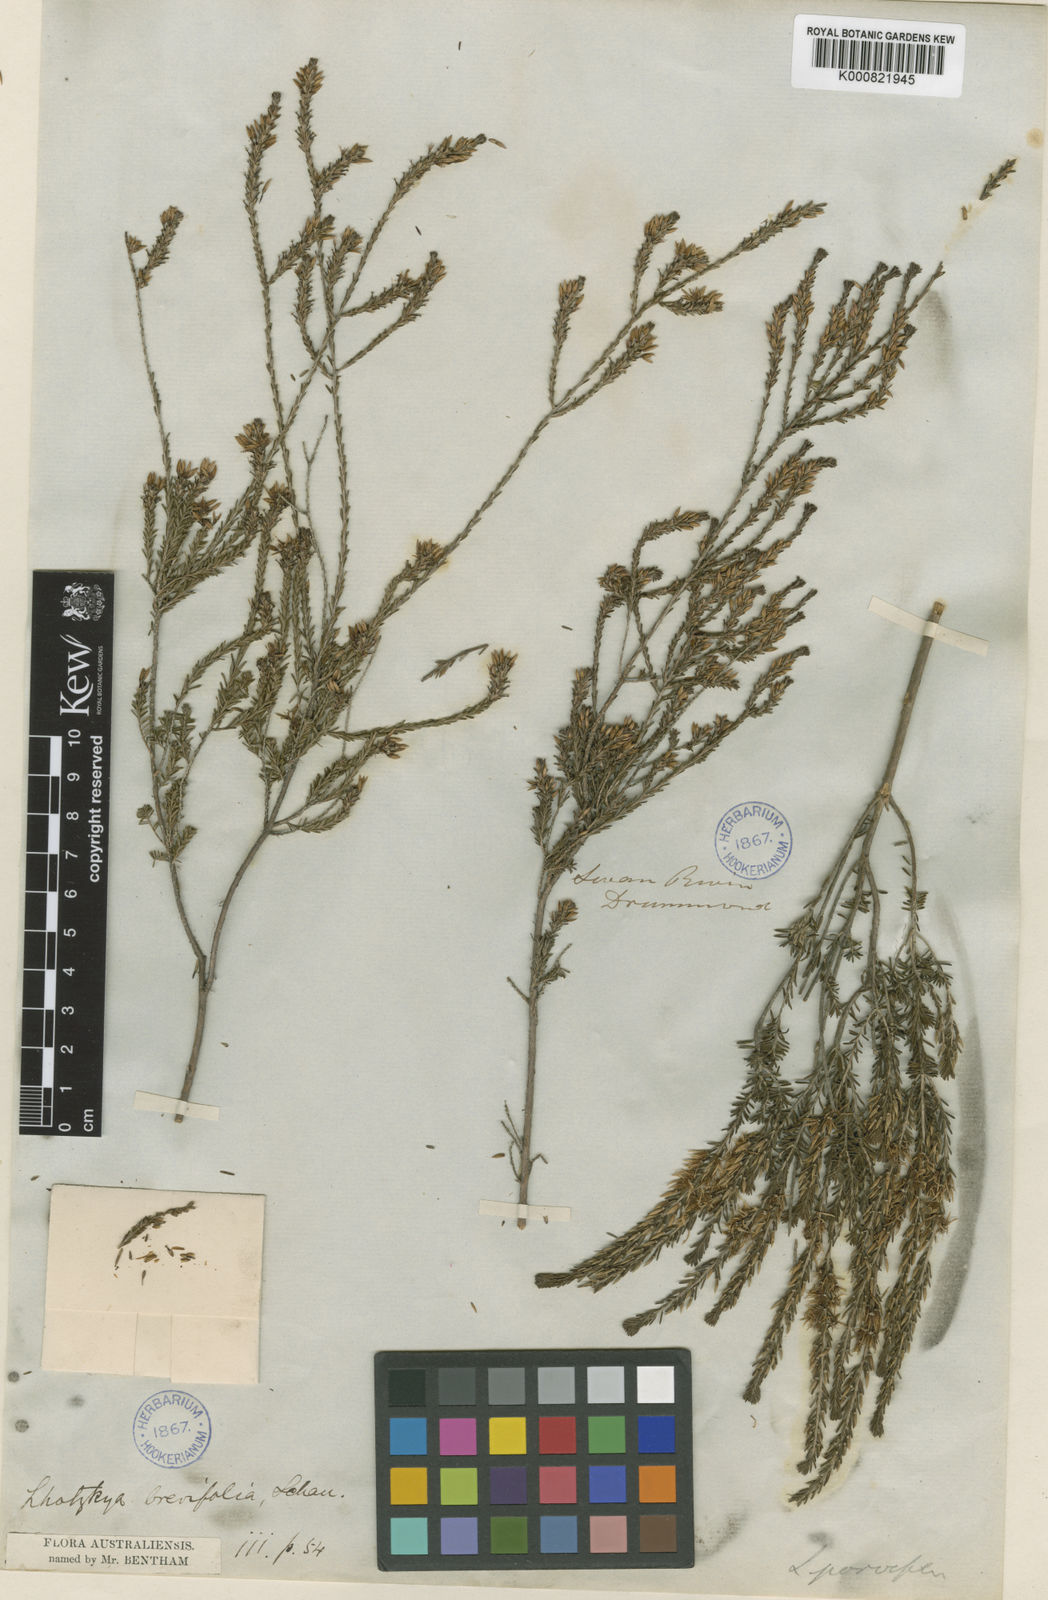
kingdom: Plantae
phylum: Tracheophyta
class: Magnoliopsida
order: Myrtales
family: Myrtaceae
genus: Calytrix
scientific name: Calytrix sylvana
